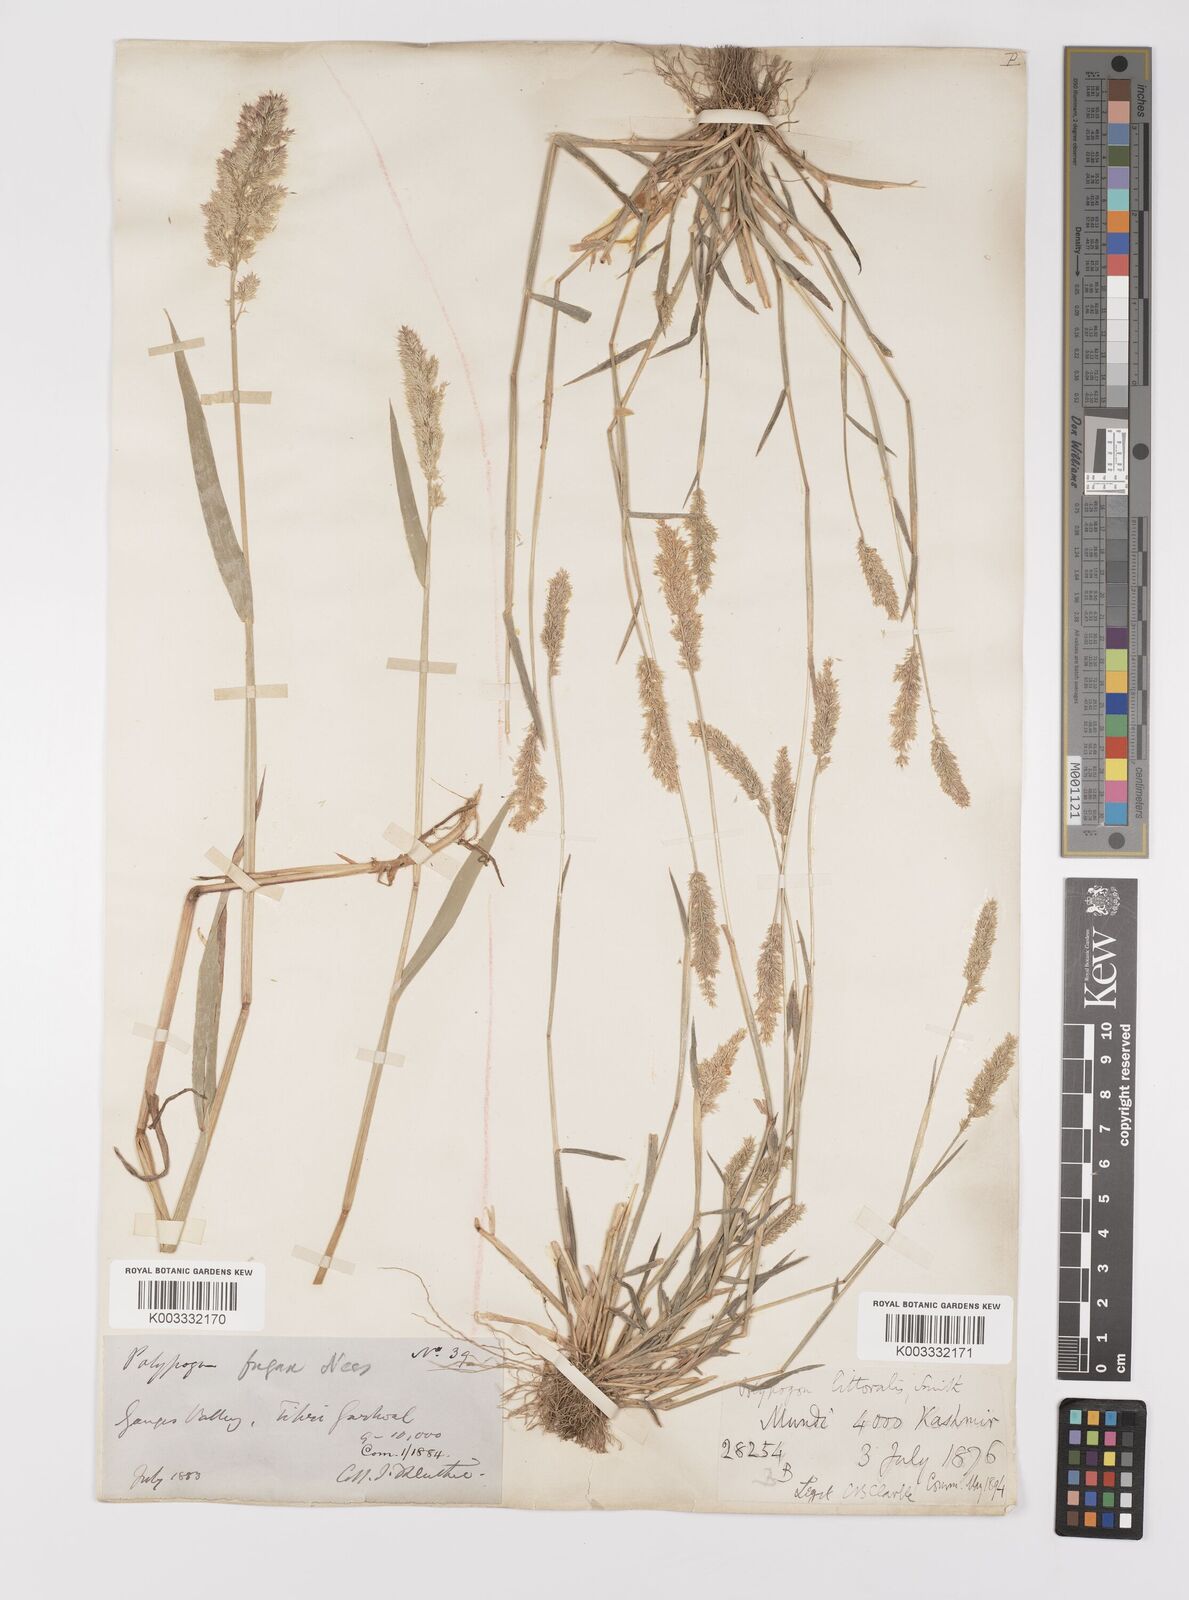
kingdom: Plantae
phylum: Tracheophyta
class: Liliopsida
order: Poales
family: Poaceae
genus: Polypogon
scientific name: Polypogon fugax
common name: Asia minor bluegrass
